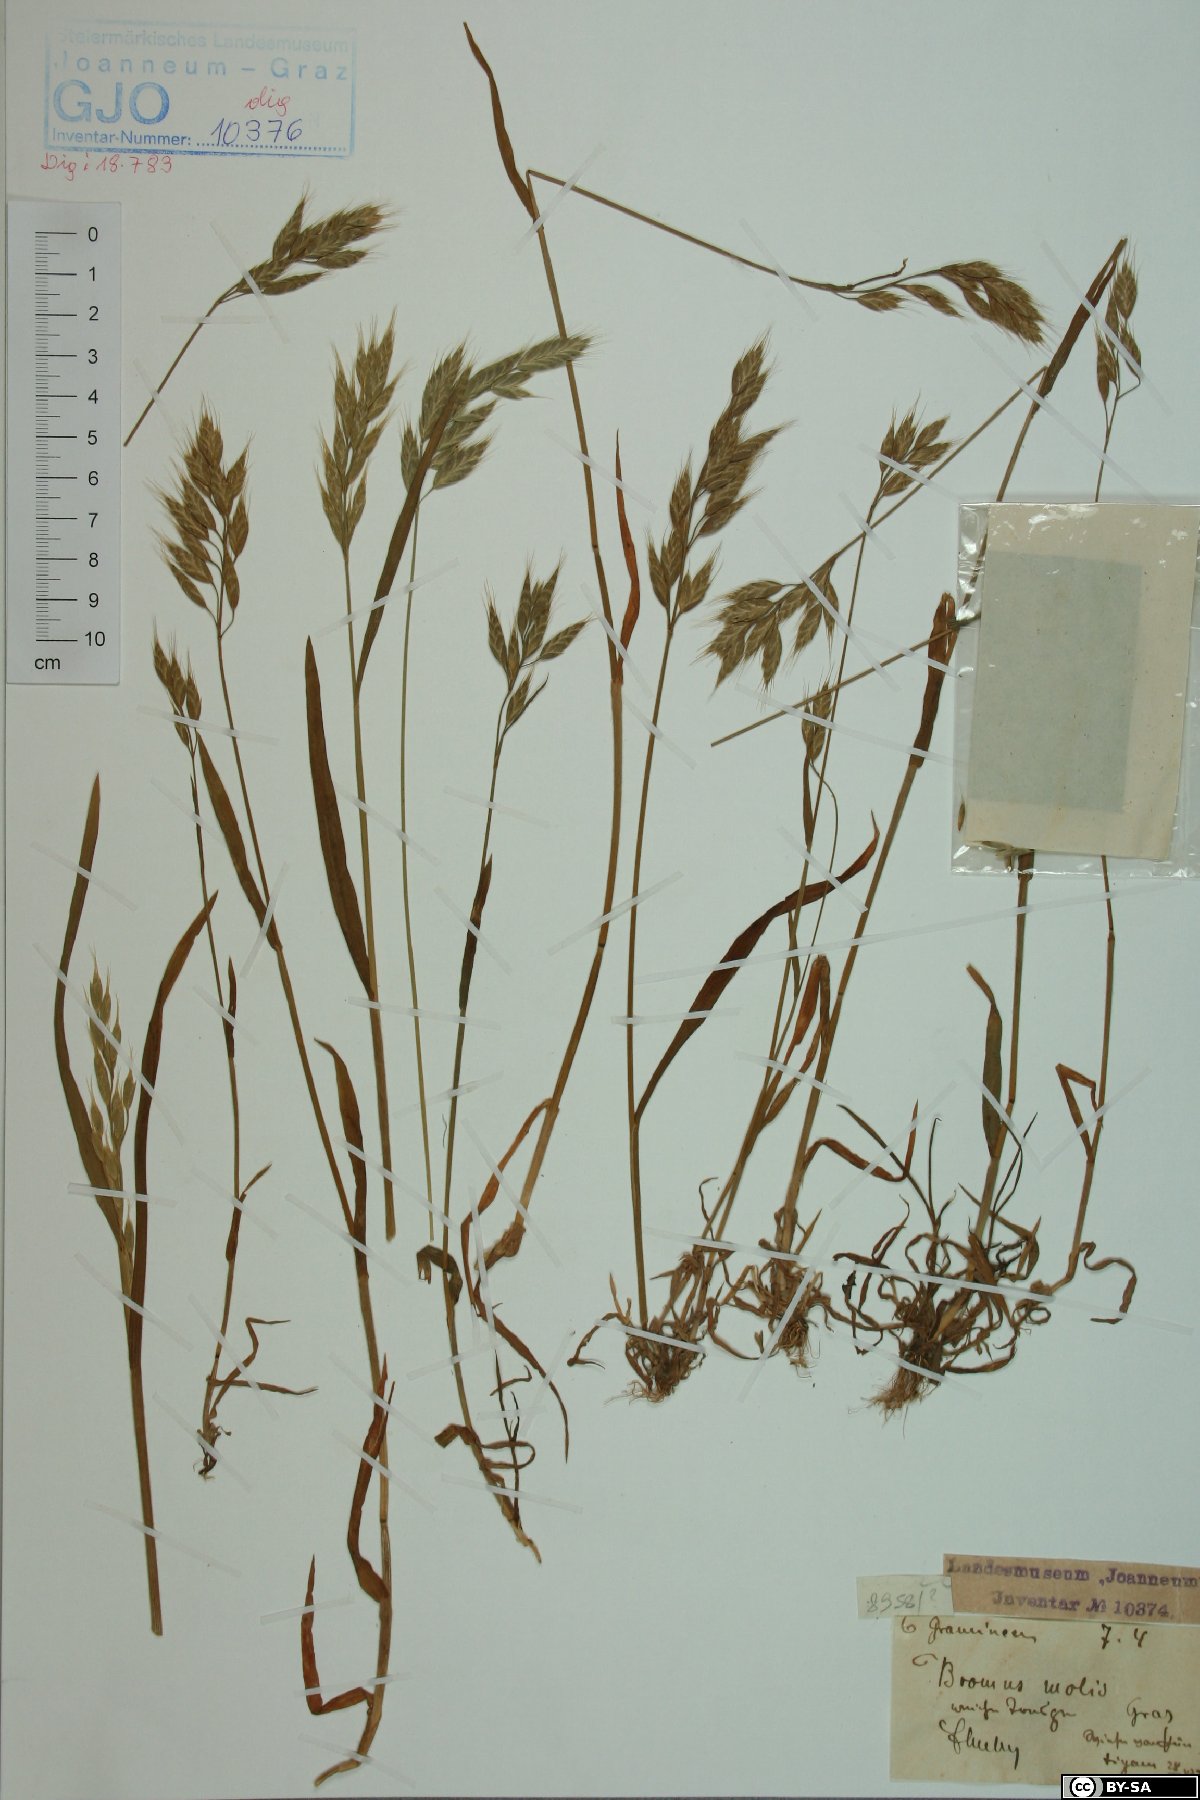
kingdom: Plantae
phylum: Tracheophyta
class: Liliopsida
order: Poales
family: Poaceae
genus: Bromus
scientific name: Bromus hordeaceus
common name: Soft brome
